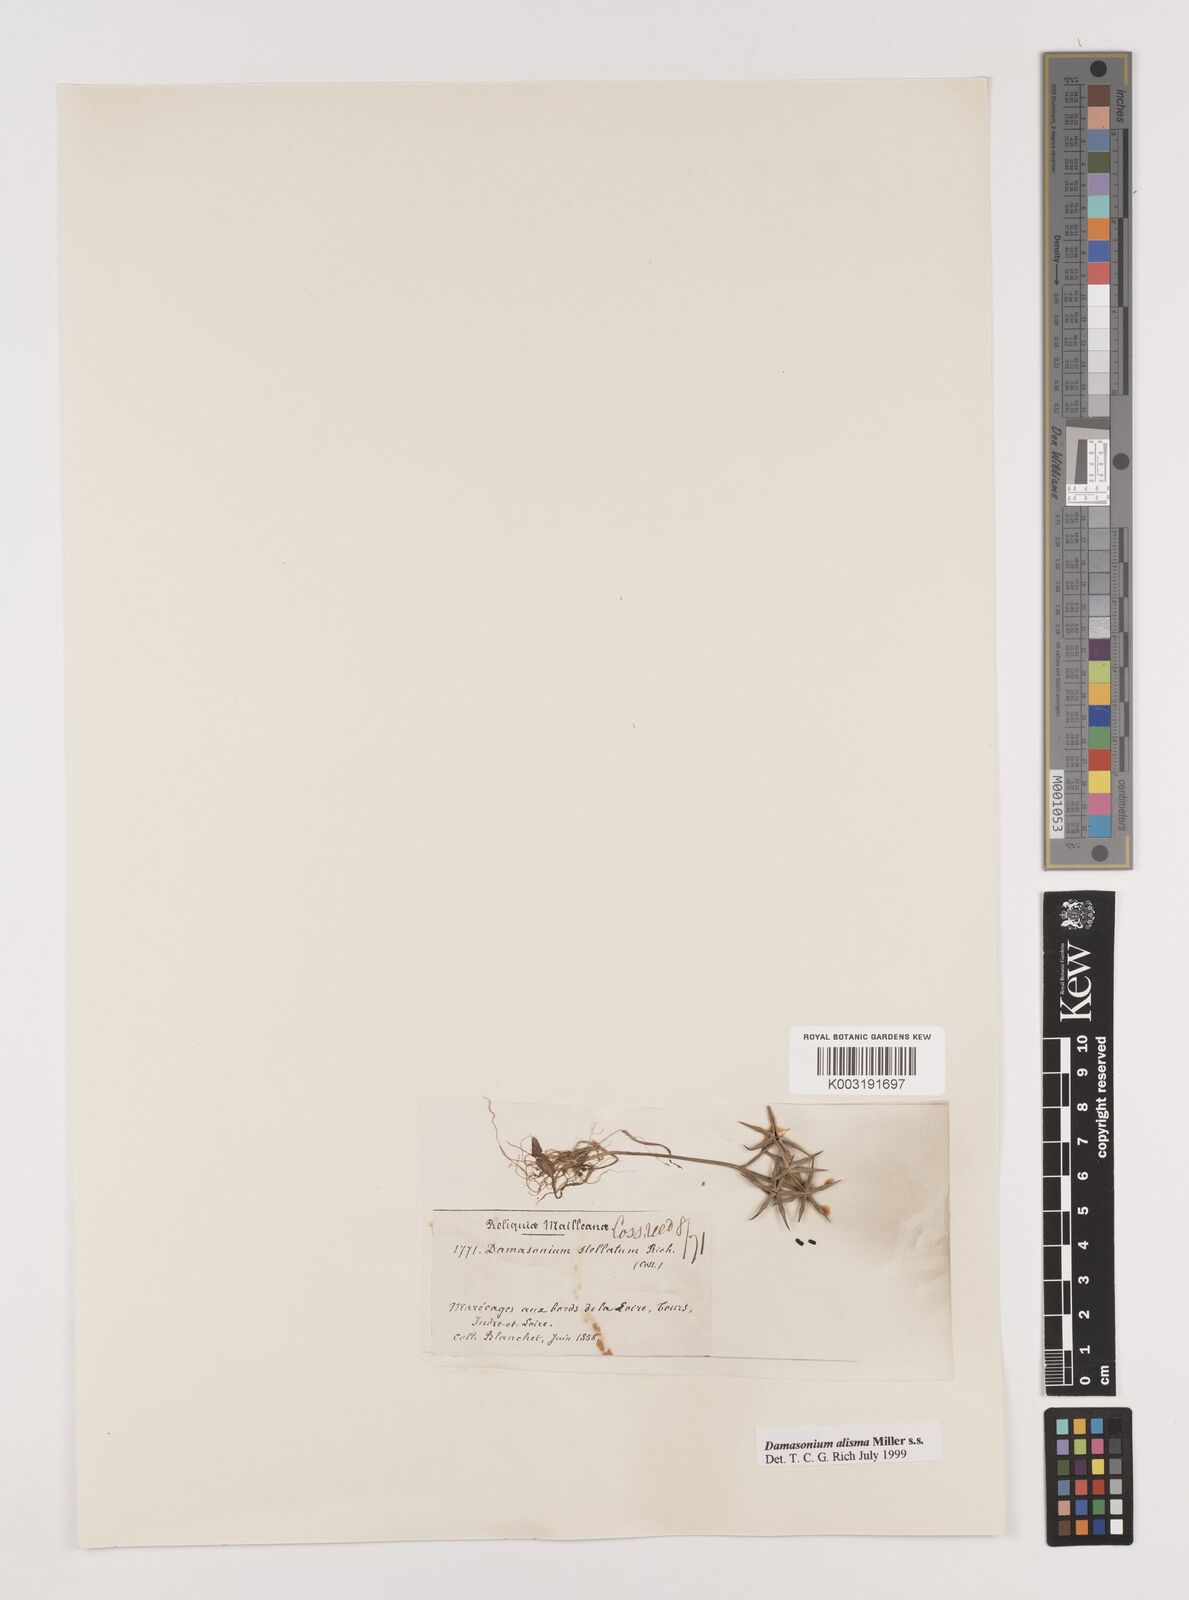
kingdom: Plantae
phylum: Tracheophyta
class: Liliopsida
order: Alismatales
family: Alismataceae
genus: Damasonium
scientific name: Damasonium alisma
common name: Starfruit
